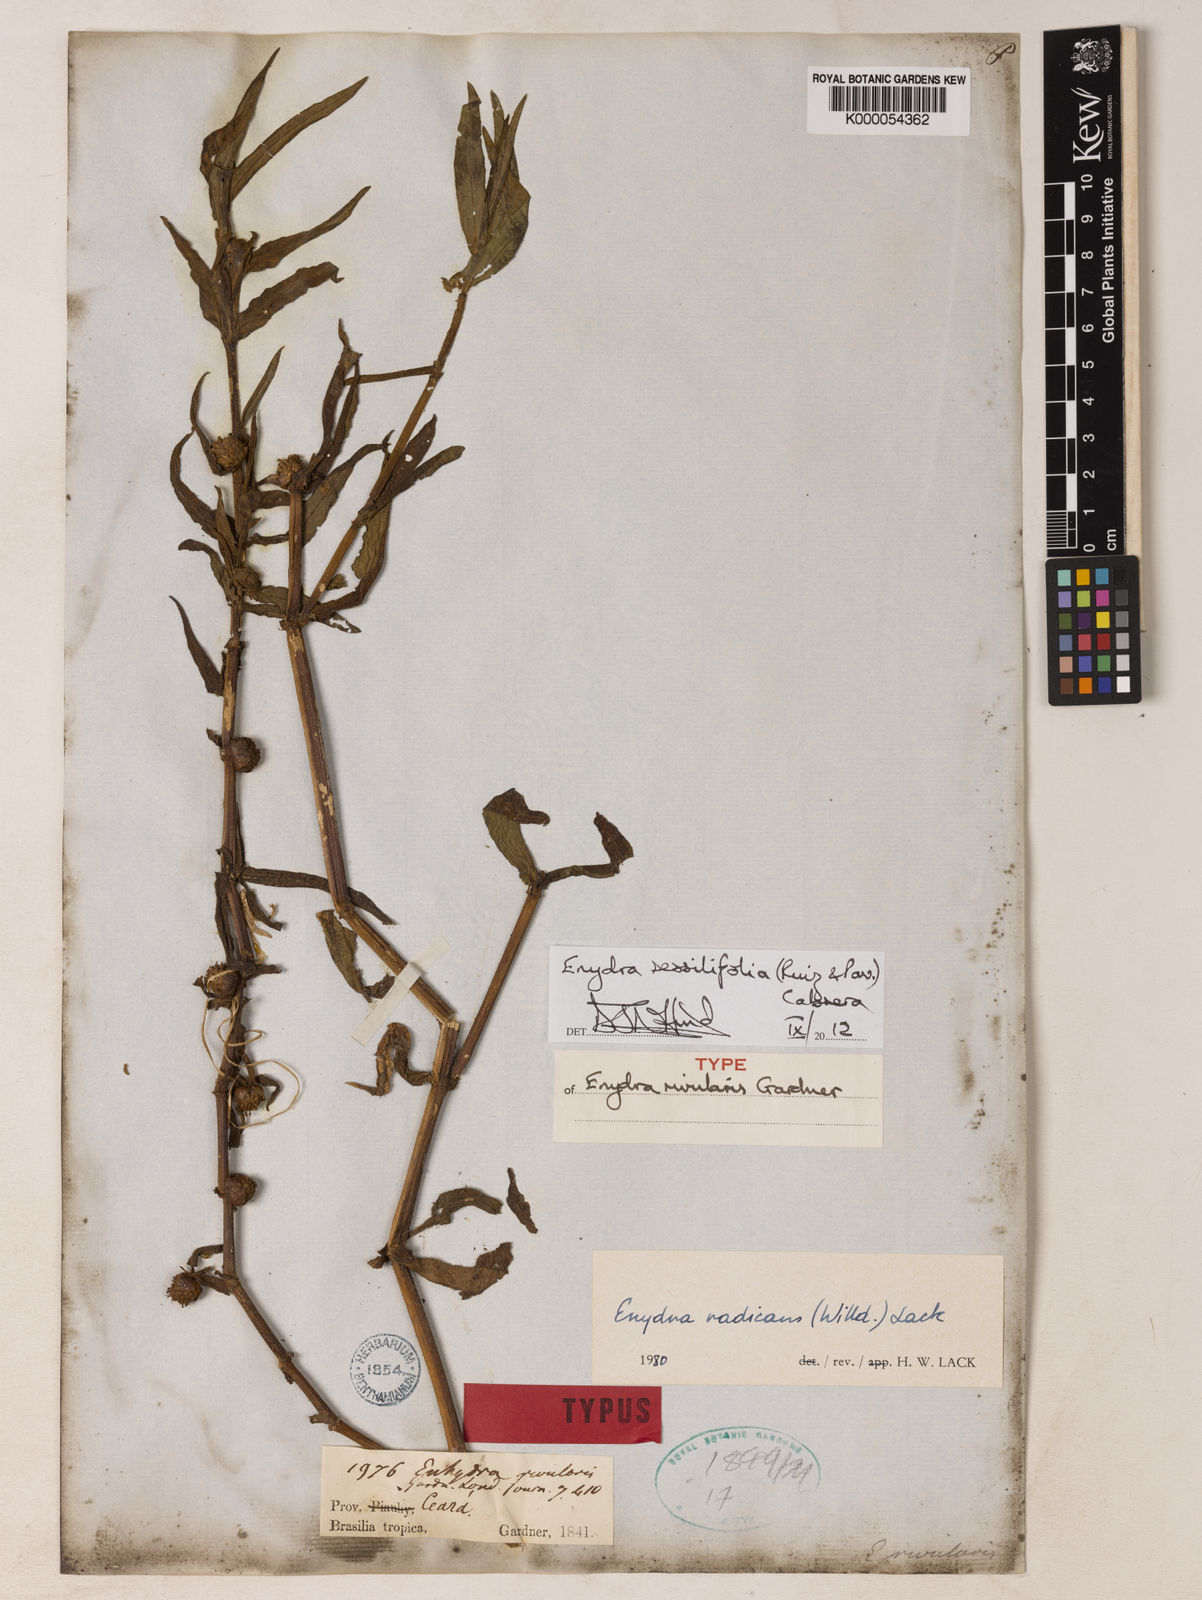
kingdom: Plantae
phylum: Tracheophyta
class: Magnoliopsida
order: Asterales
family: Asteraceae
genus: Enydra
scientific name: Enydra sessilifolia
